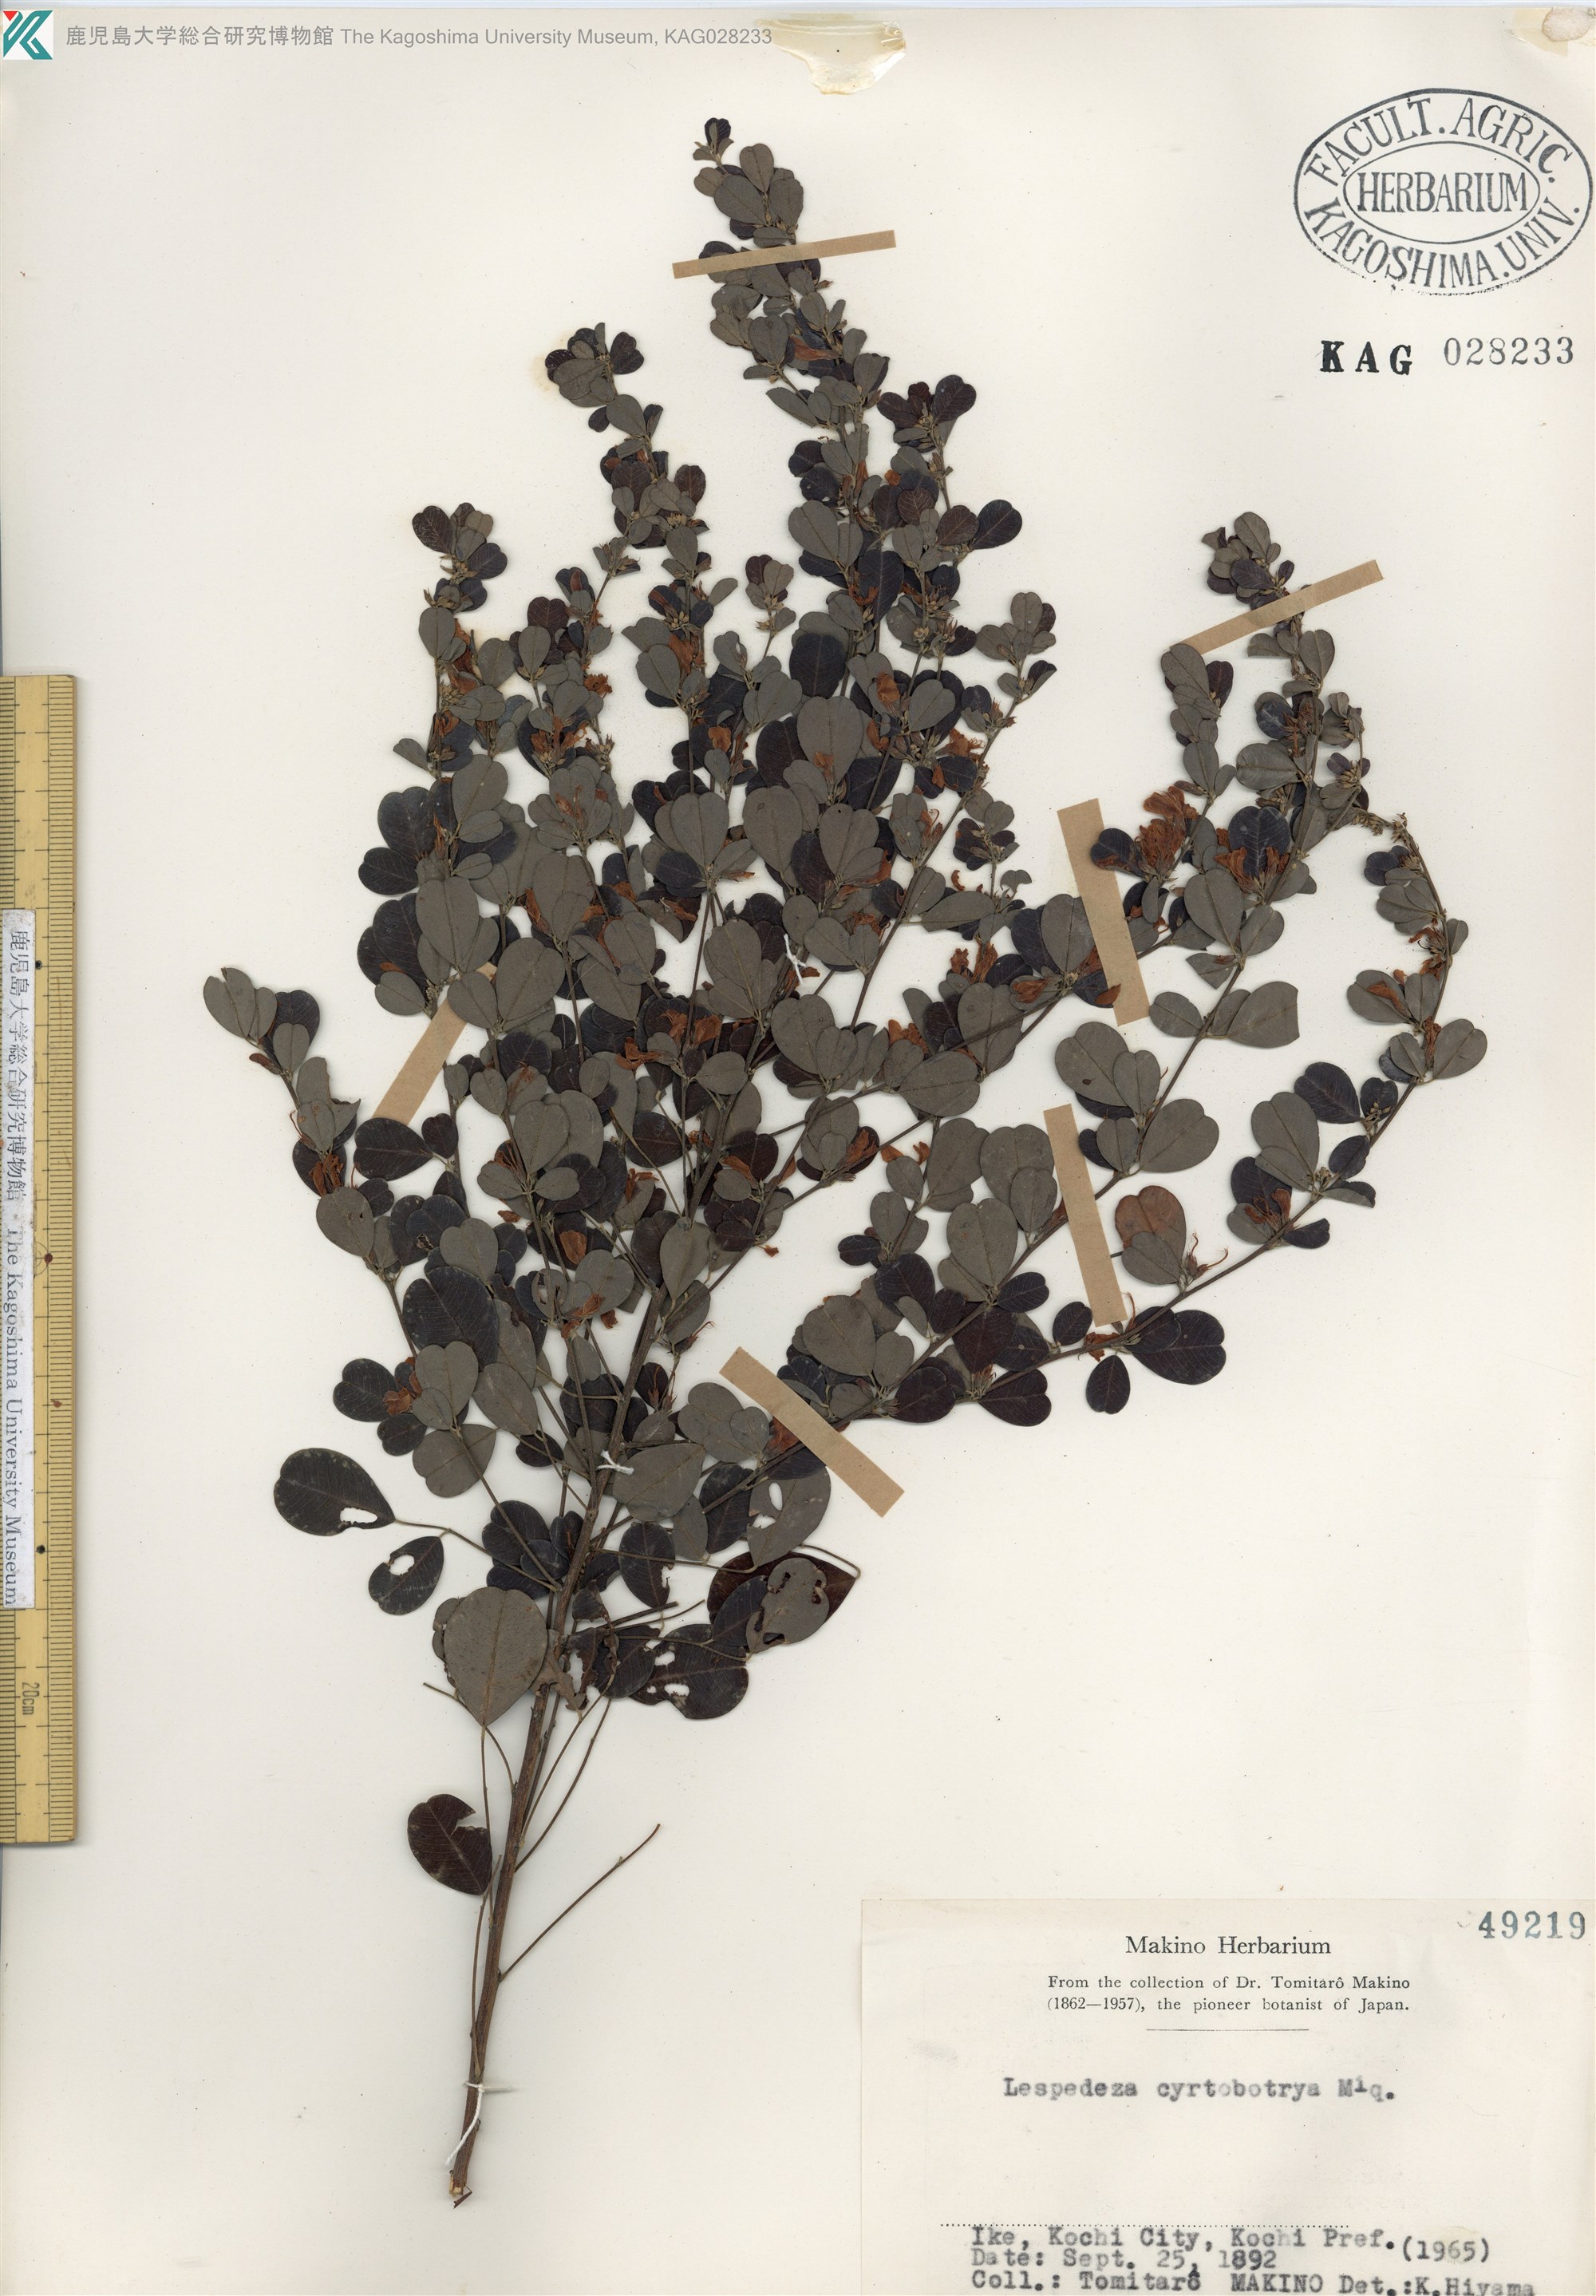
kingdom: Plantae
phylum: Tracheophyta
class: Magnoliopsida
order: Fabales
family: Fabaceae
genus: Lespedeza
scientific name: Lespedeza cyrtobotrya
